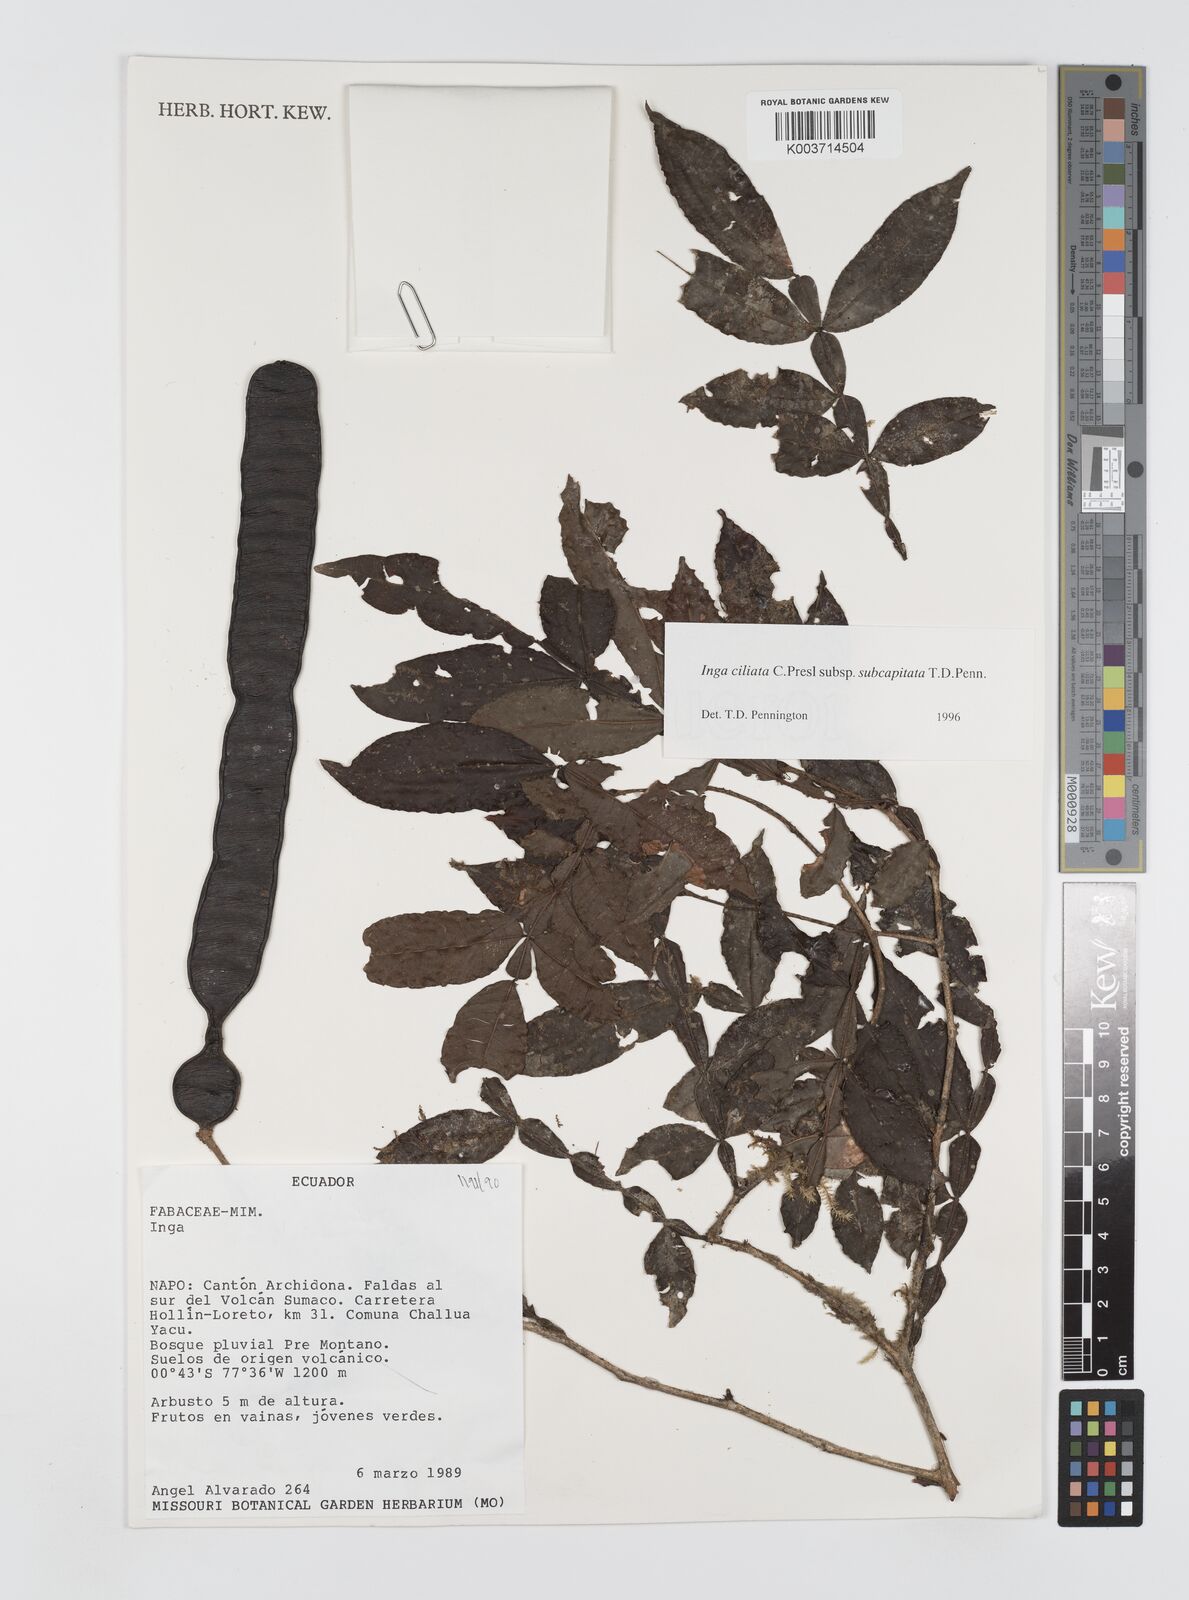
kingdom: Plantae
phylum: Tracheophyta
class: Magnoliopsida
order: Fabales
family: Fabaceae
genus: Inga
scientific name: Inga ciliata
